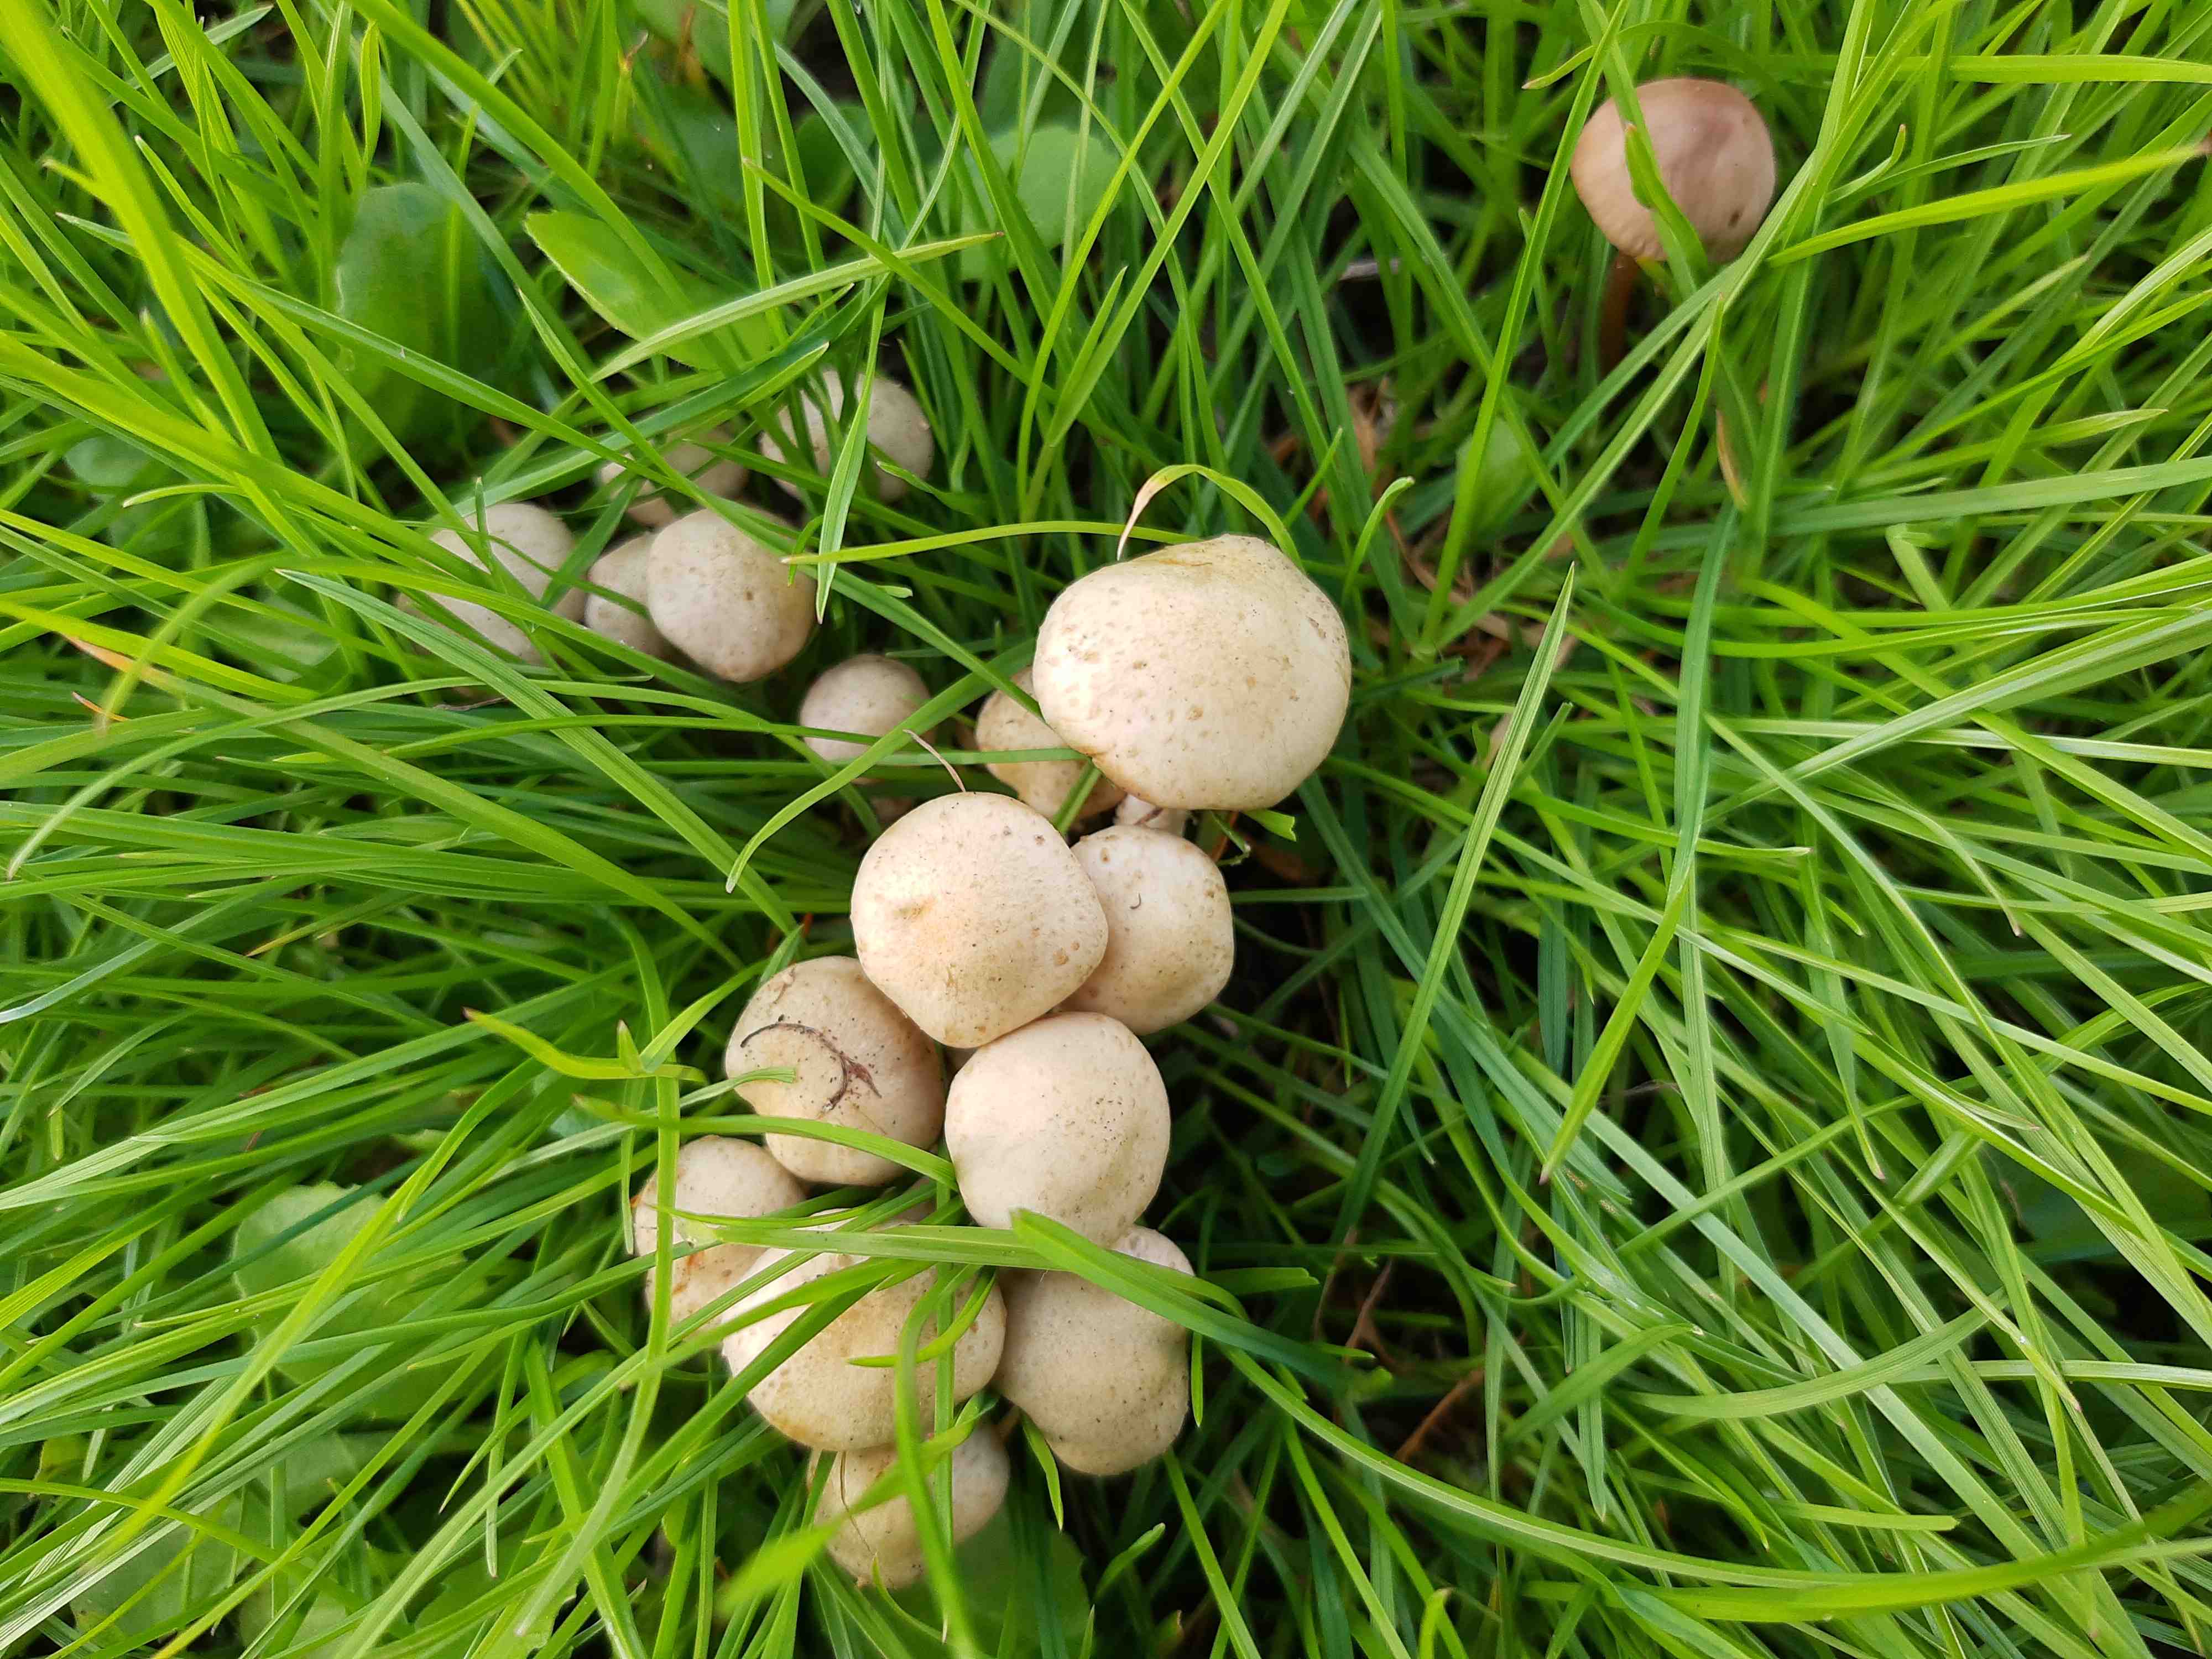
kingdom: Fungi
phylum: Basidiomycota
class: Agaricomycetes
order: Agaricales
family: Strophariaceae
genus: Pholiota
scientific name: Pholiota gummosa
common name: grøngul skælhat
